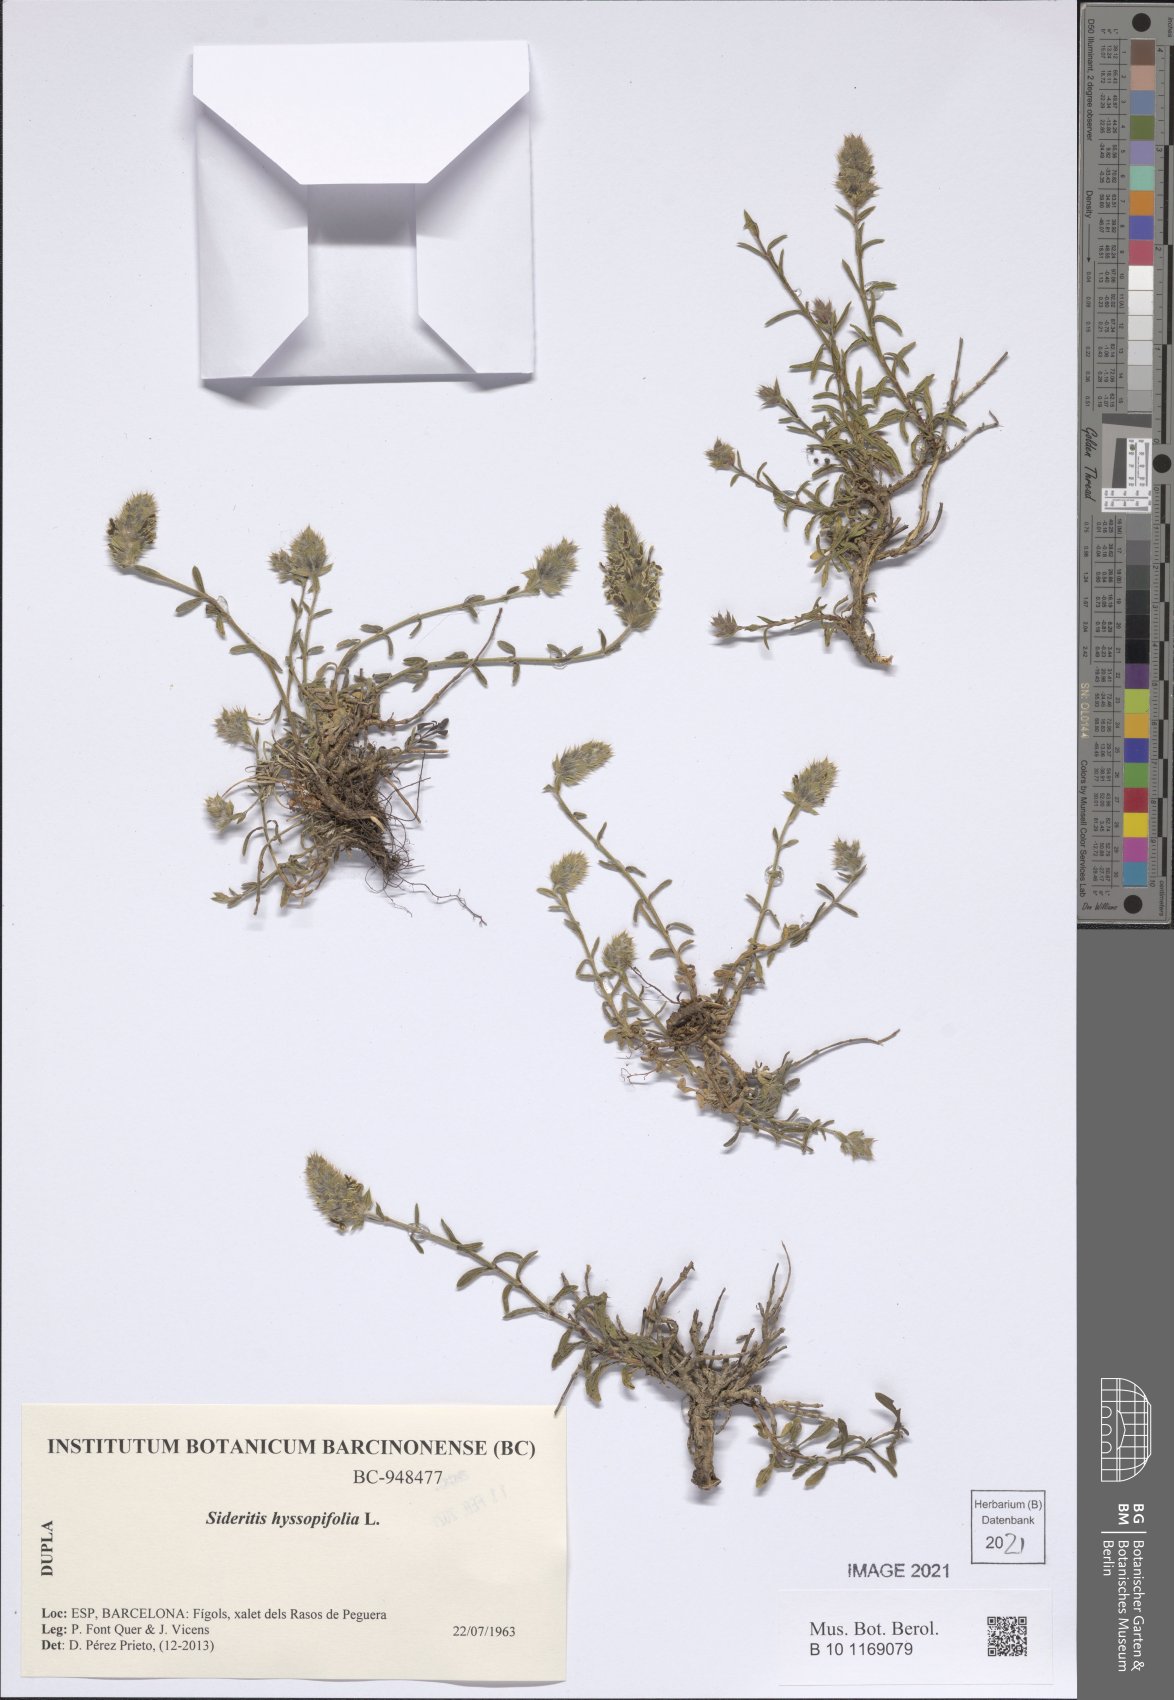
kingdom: Plantae
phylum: Tracheophyta
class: Magnoliopsida
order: Lamiales
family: Lamiaceae
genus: Sideritis
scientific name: Sideritis hyssopifolia
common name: Mountain tea
